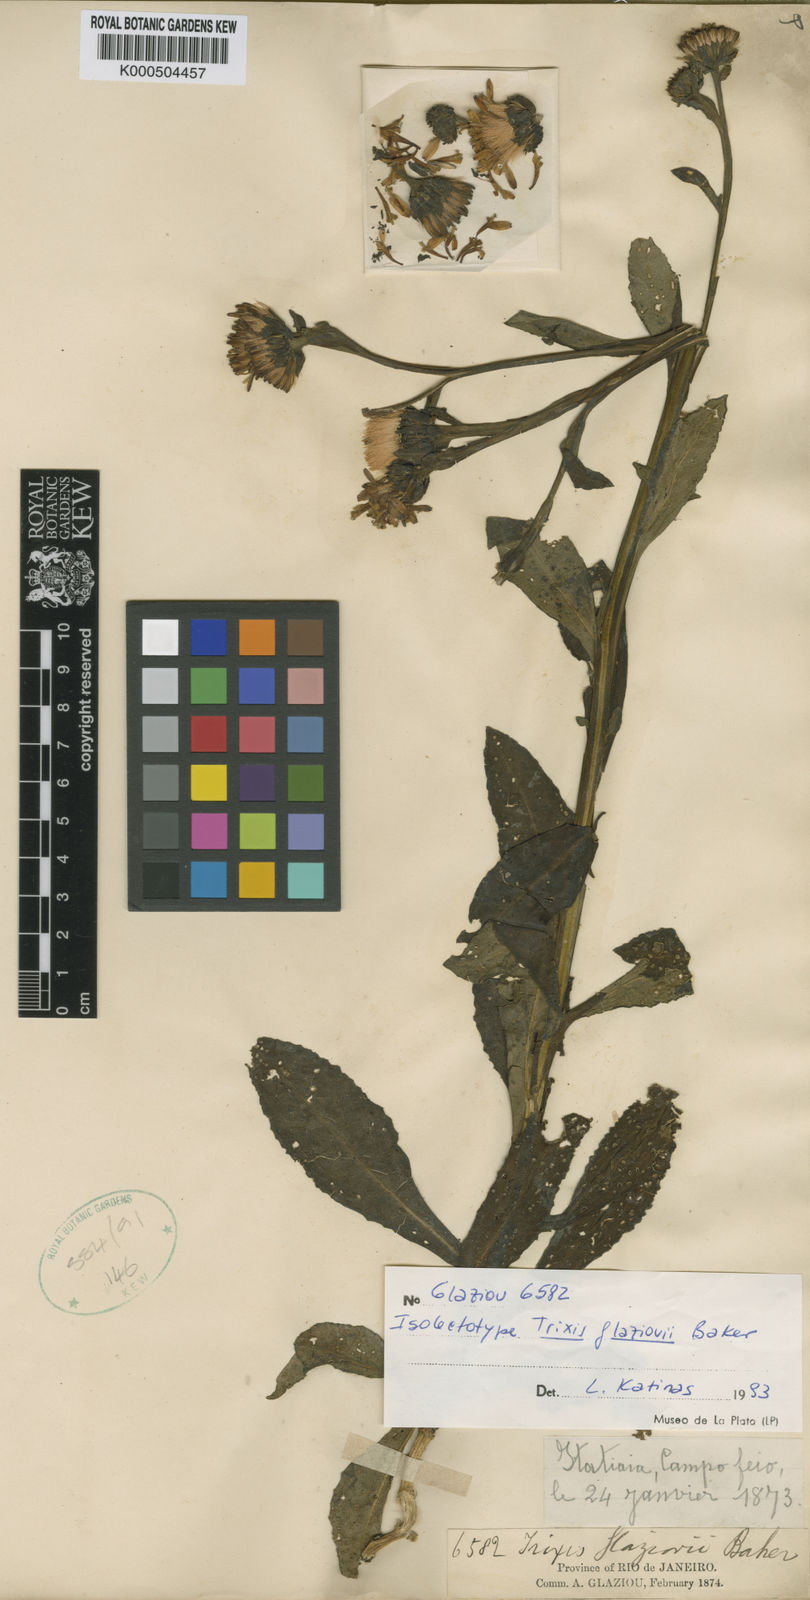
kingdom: Plantae
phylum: Tracheophyta
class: Magnoliopsida
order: Asterales
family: Asteraceae
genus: Trixis
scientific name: Trixis glaziovii
